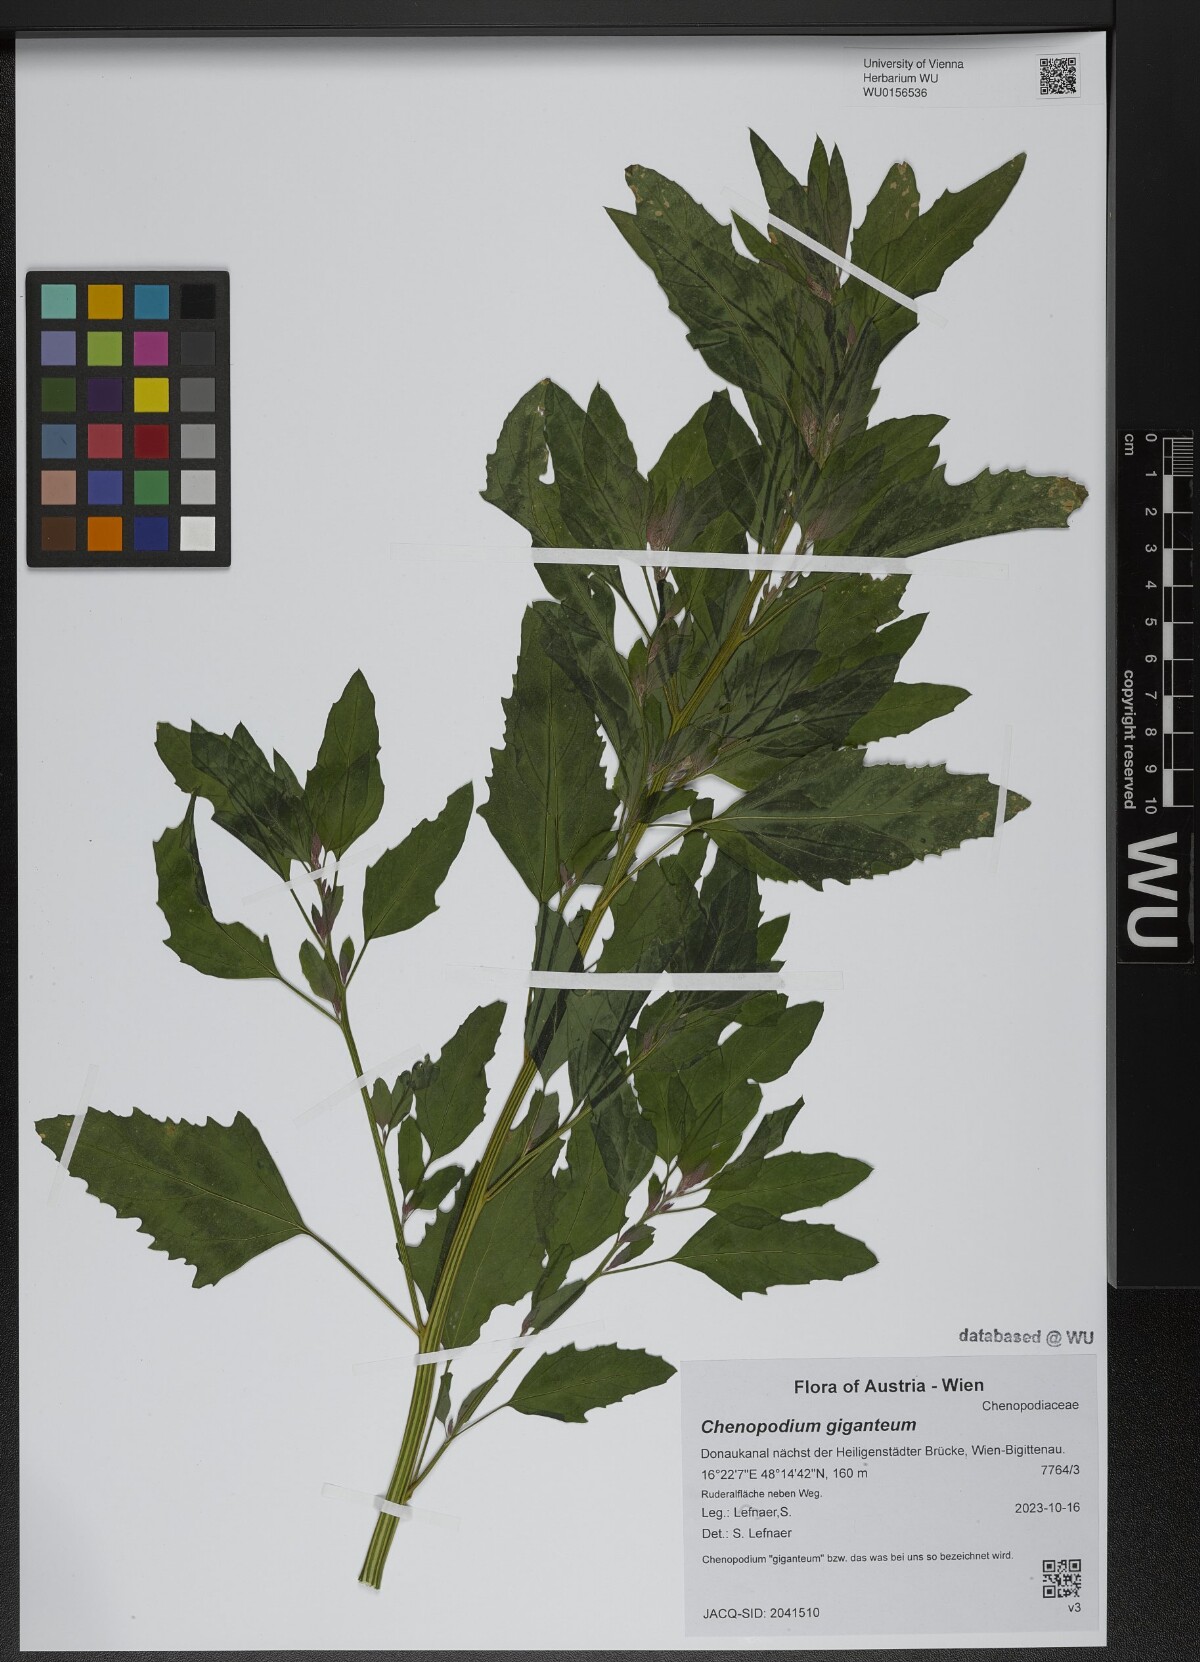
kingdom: Plantae
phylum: Tracheophyta
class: Magnoliopsida
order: Caryophyllales
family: Amaranthaceae
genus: Chenopodium
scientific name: Chenopodium giganteum
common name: Magentaspreen
